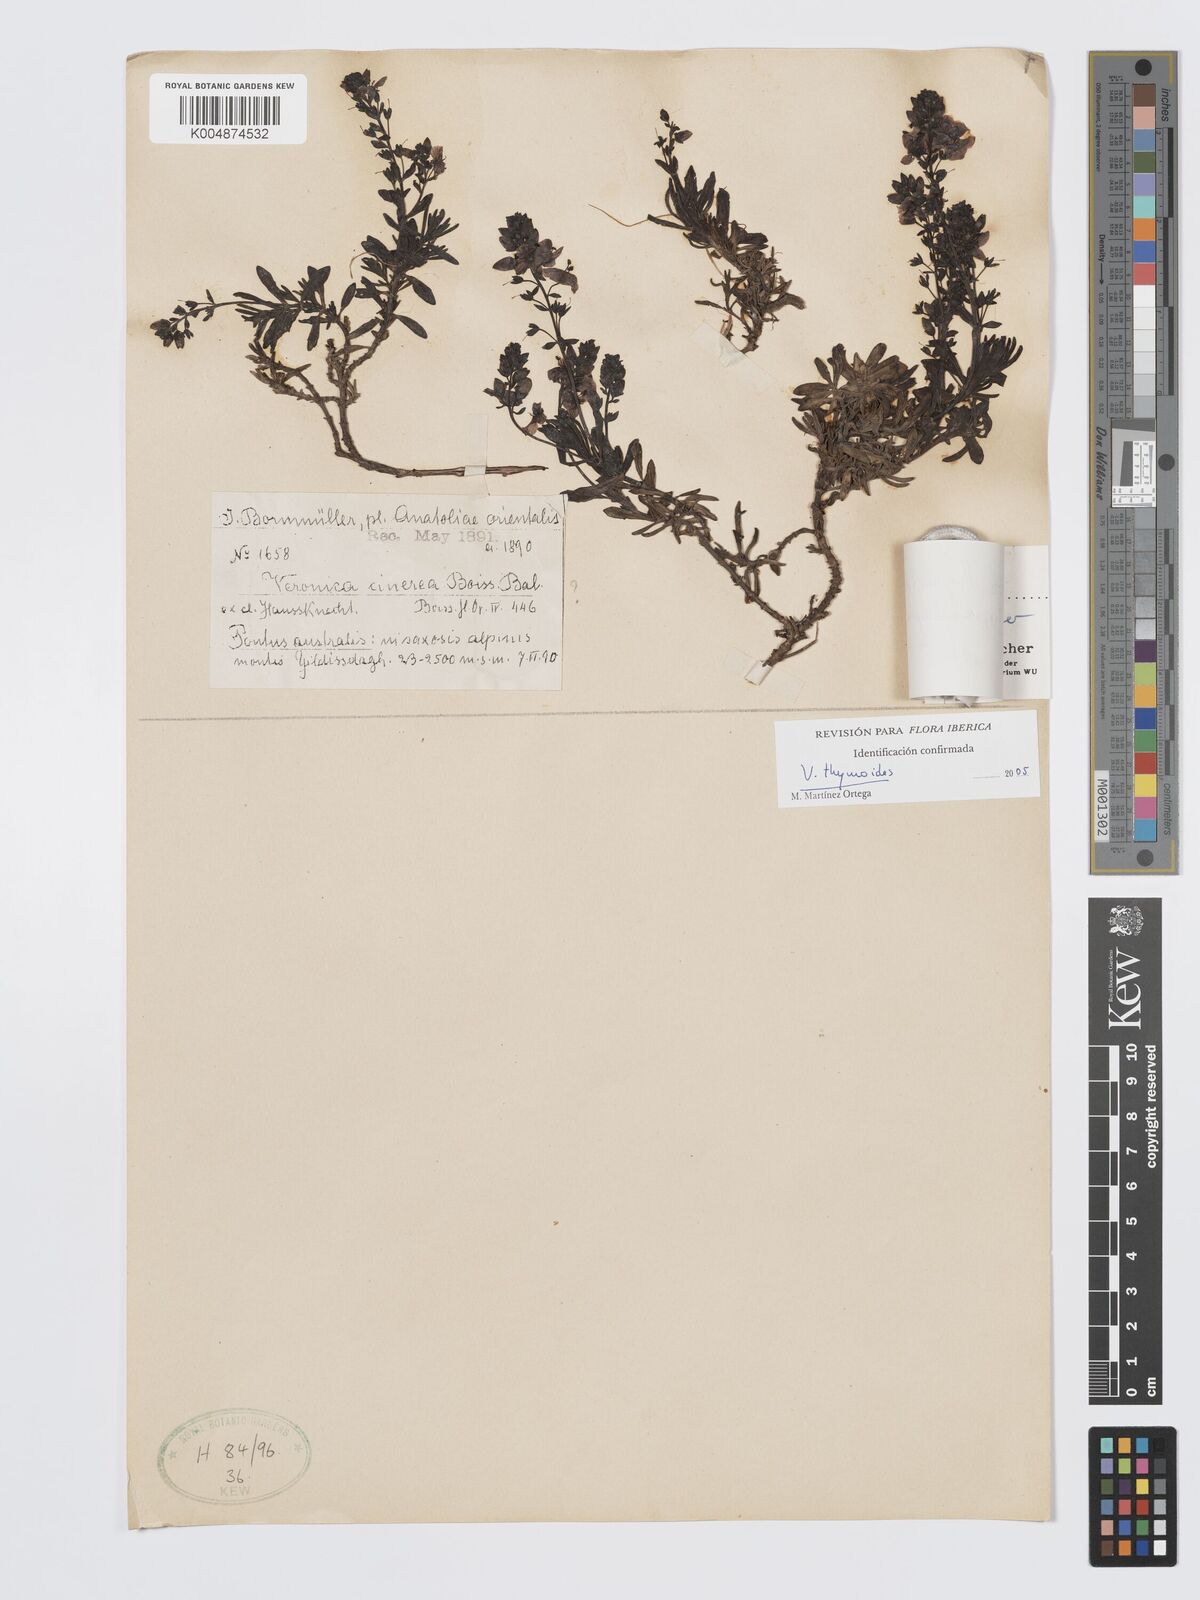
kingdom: Plantae
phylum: Tracheophyta
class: Magnoliopsida
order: Lamiales
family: Plantaginaceae
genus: Veronica
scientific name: Veronica thymoides
